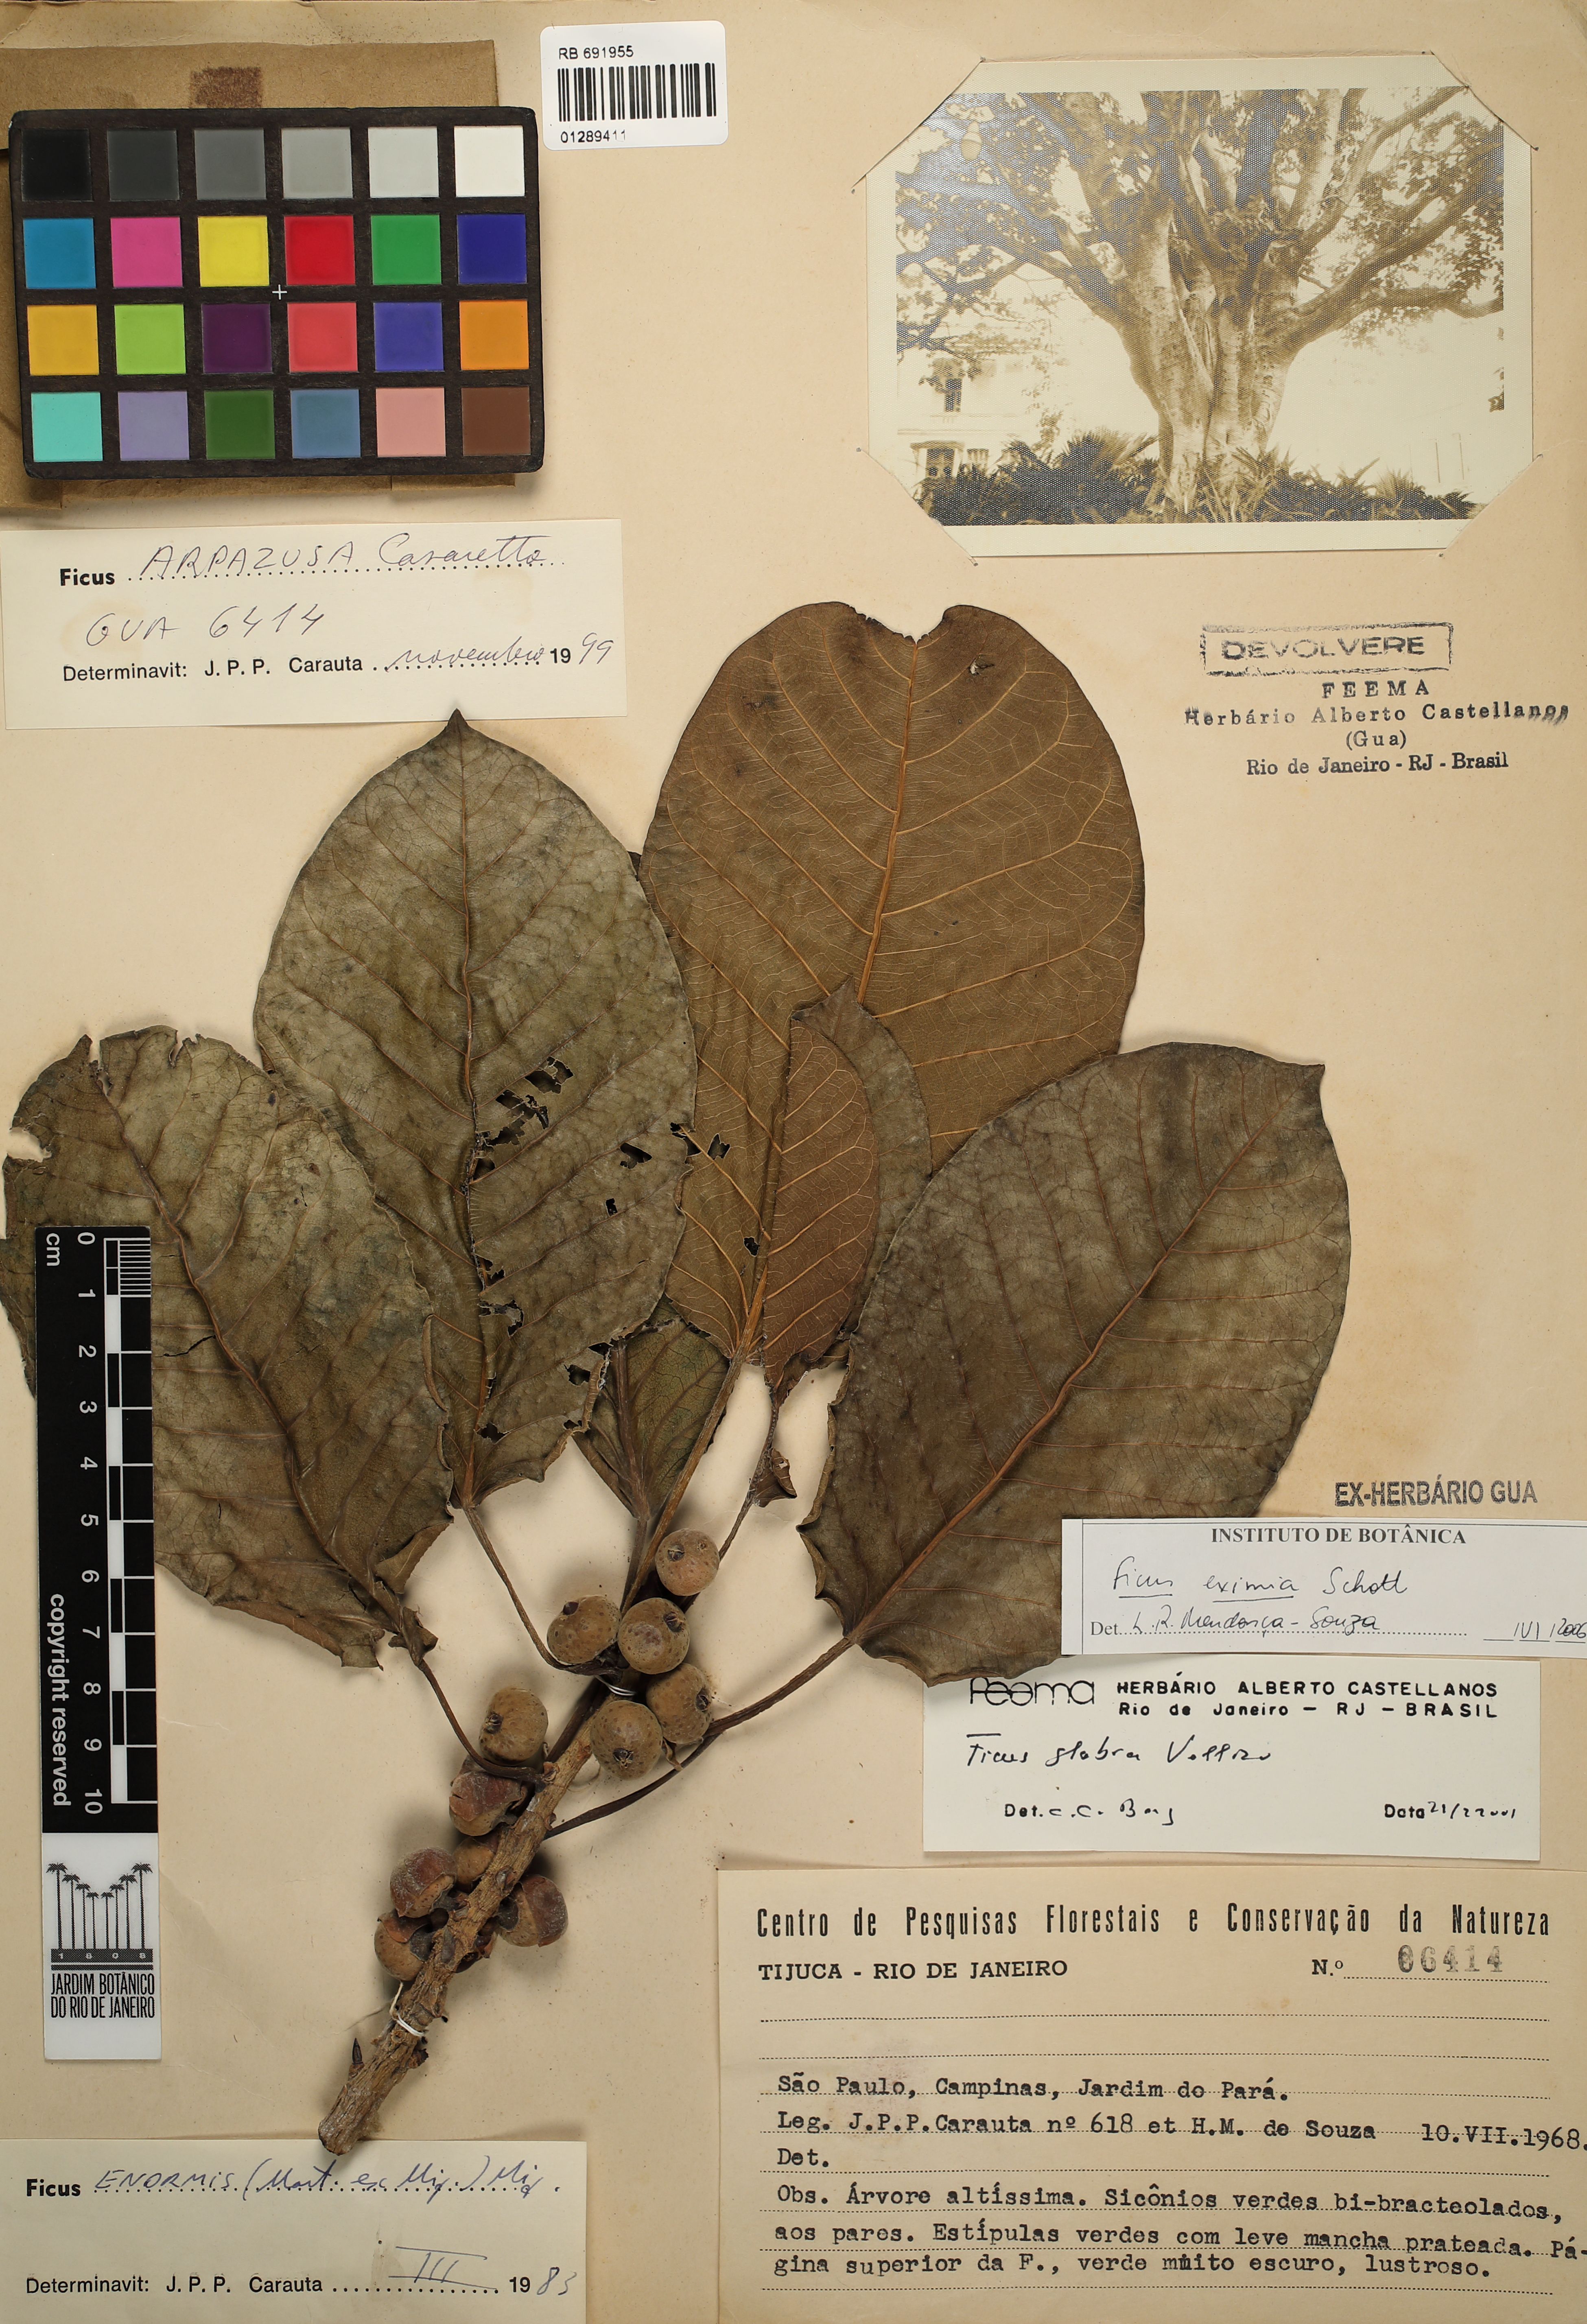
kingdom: Plantae
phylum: Tracheophyta
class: Magnoliopsida
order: Rosales
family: Moraceae
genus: Ficus
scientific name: Ficus eximia
